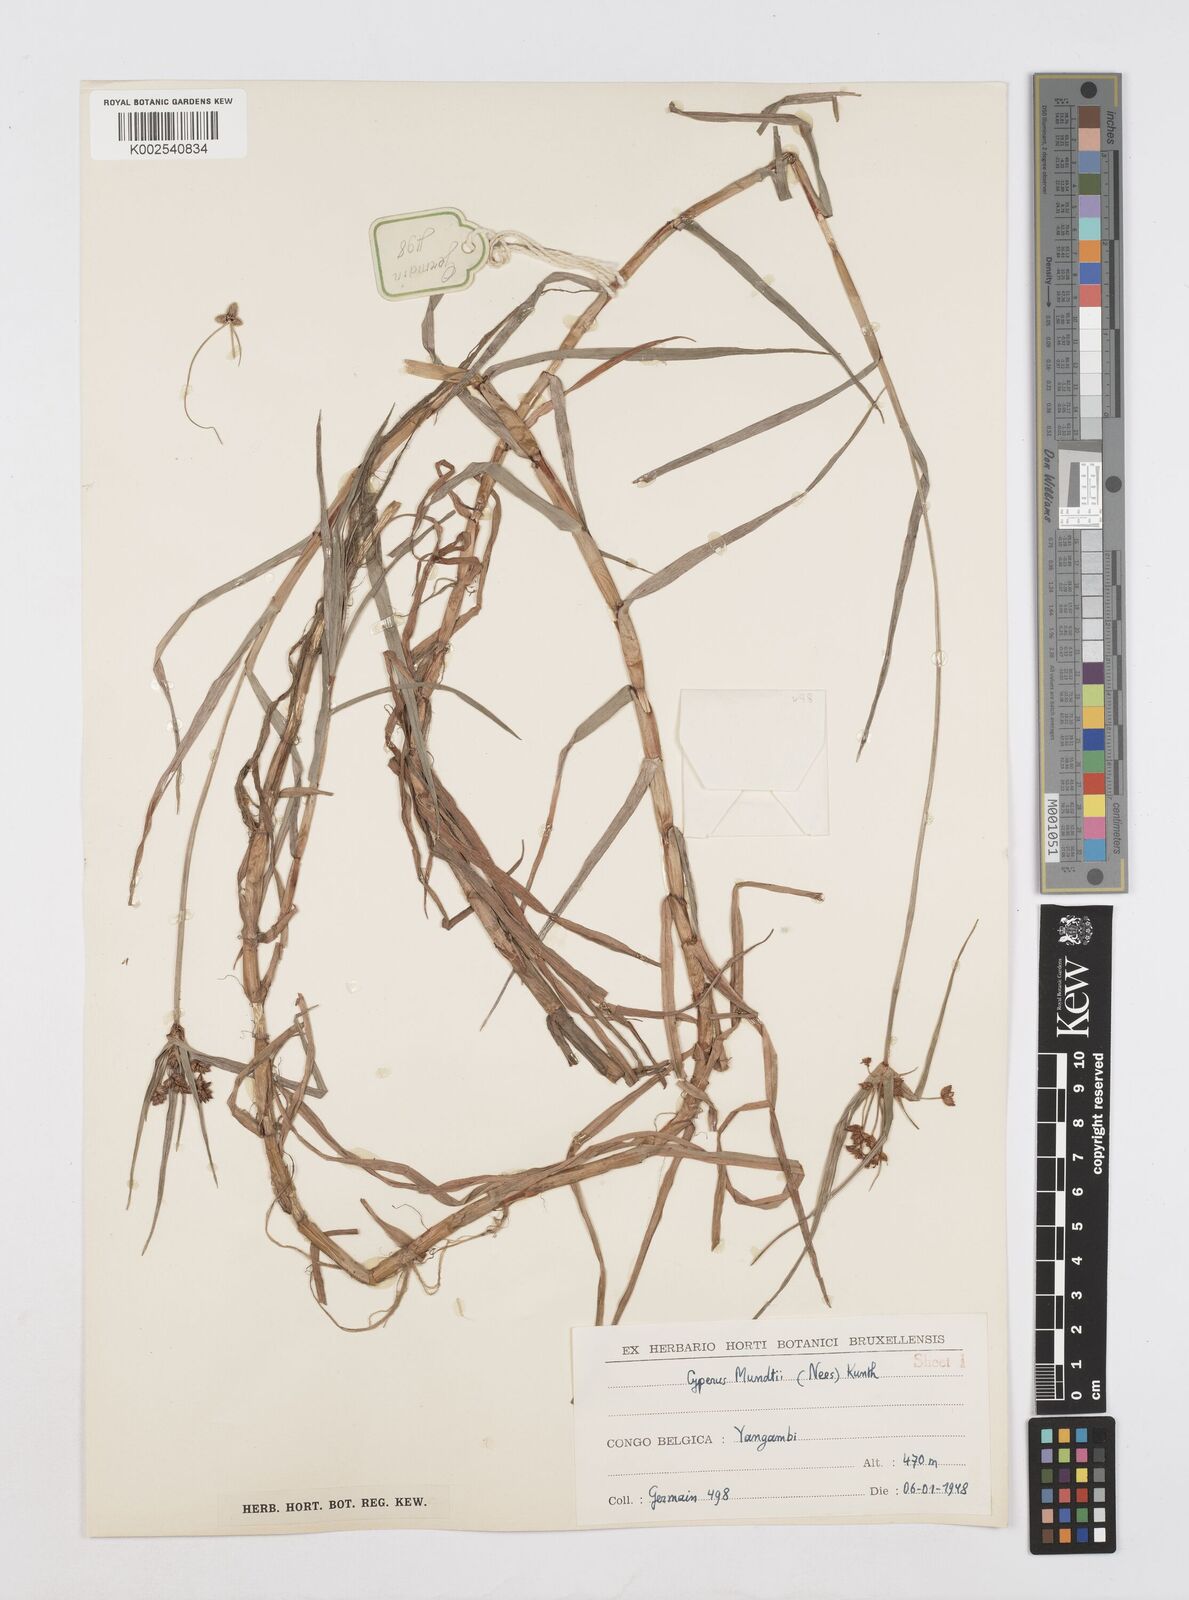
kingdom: Plantae
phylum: Tracheophyta
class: Liliopsida
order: Poales
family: Cyperaceae
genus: Cyperus
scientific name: Cyperus mundii
